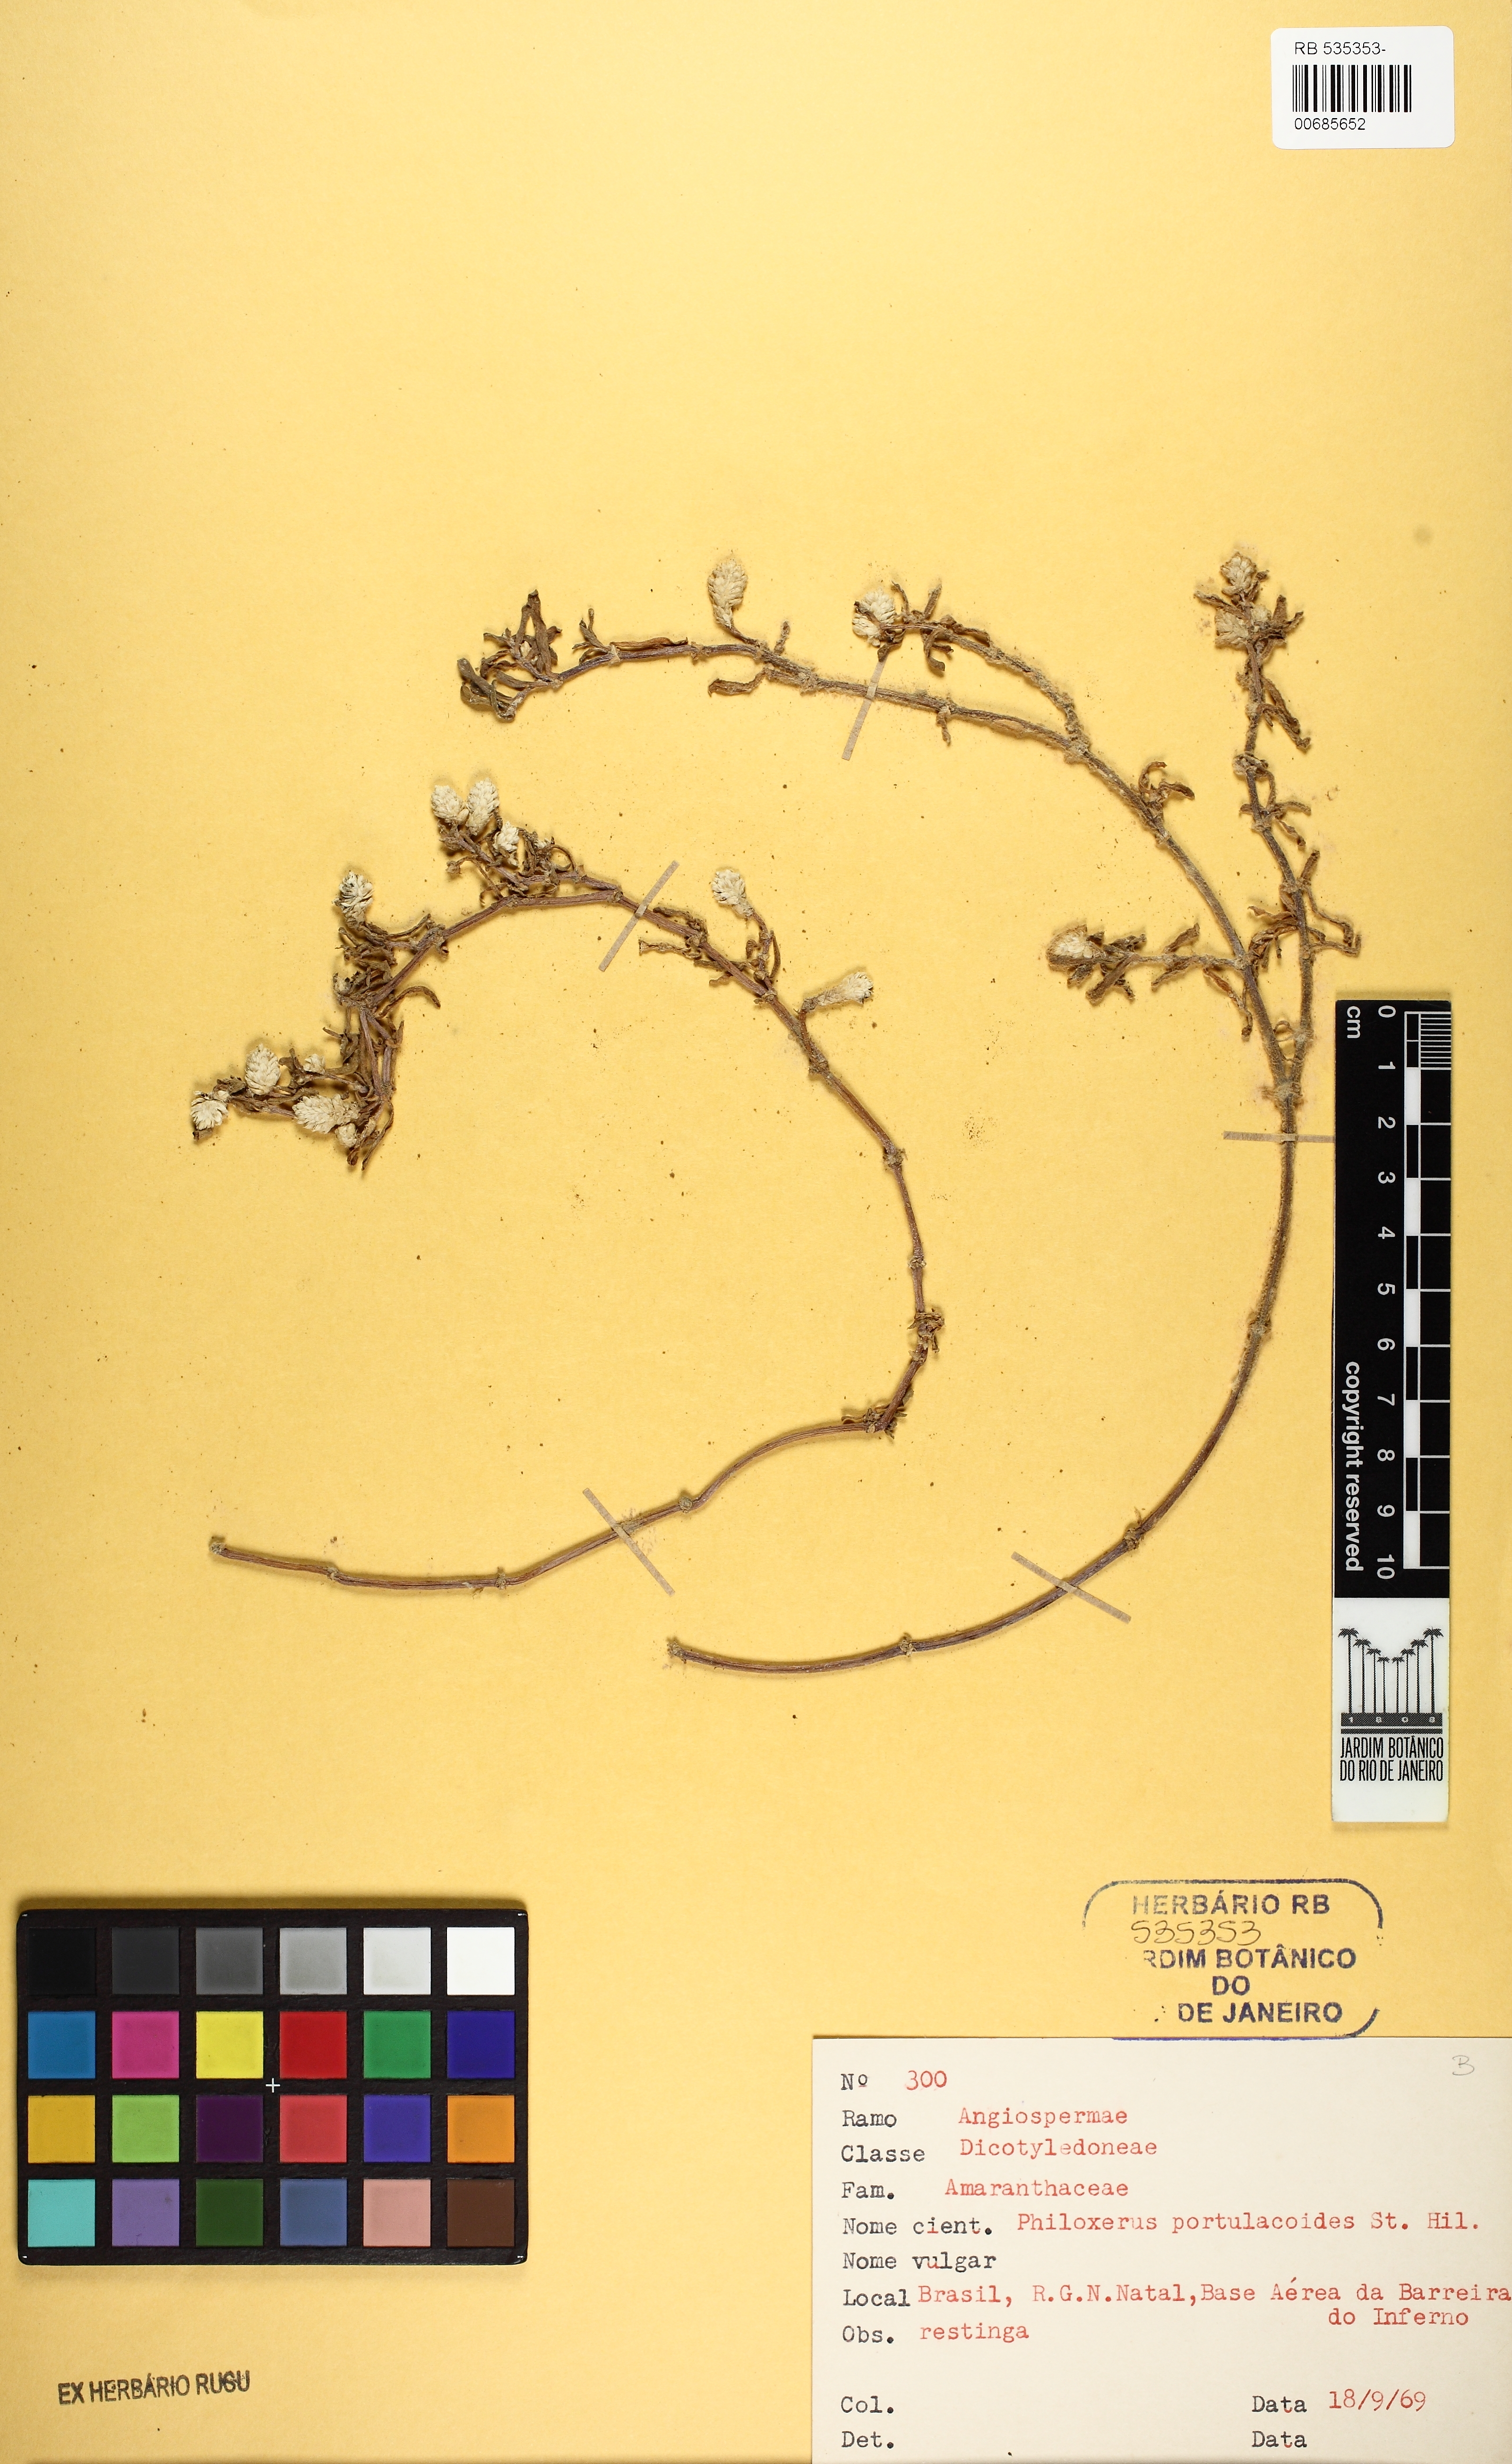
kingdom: Plantae
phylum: Tracheophyta
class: Magnoliopsida
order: Caryophyllales
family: Amaranthaceae
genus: Gomphrena
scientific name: Gomphrena portulacoides
